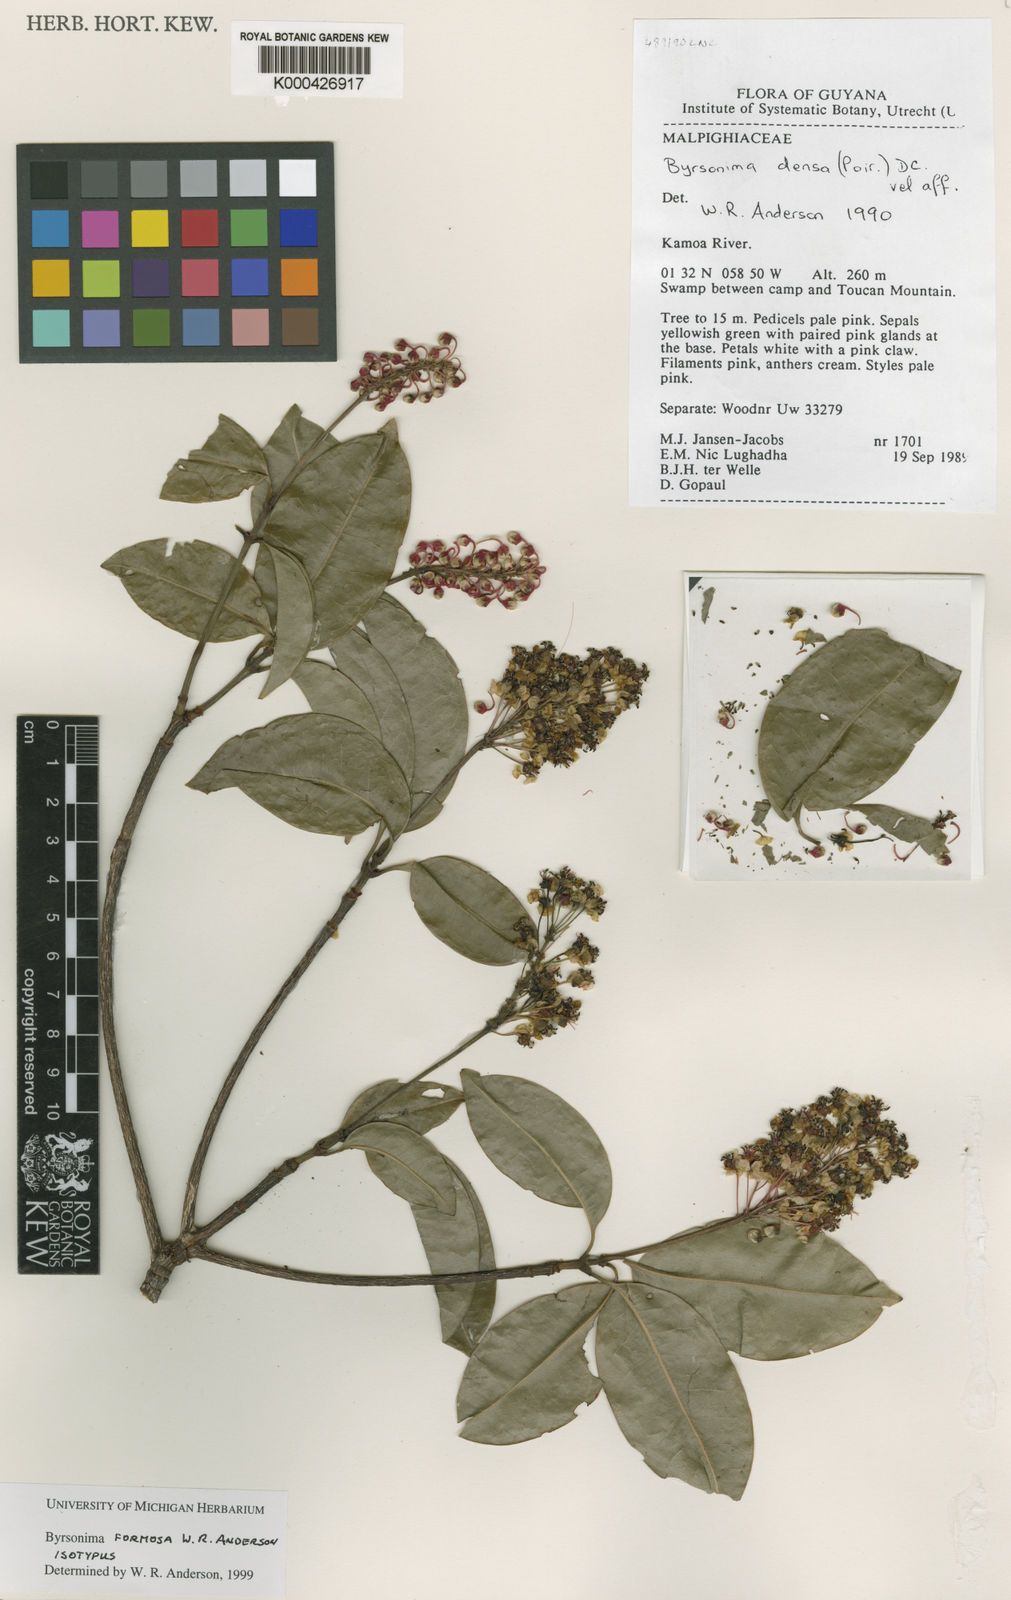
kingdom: Plantae
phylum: Tracheophyta
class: Magnoliopsida
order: Malpighiales
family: Malpighiaceae
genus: Byrsonima
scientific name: Byrsonima formosa
